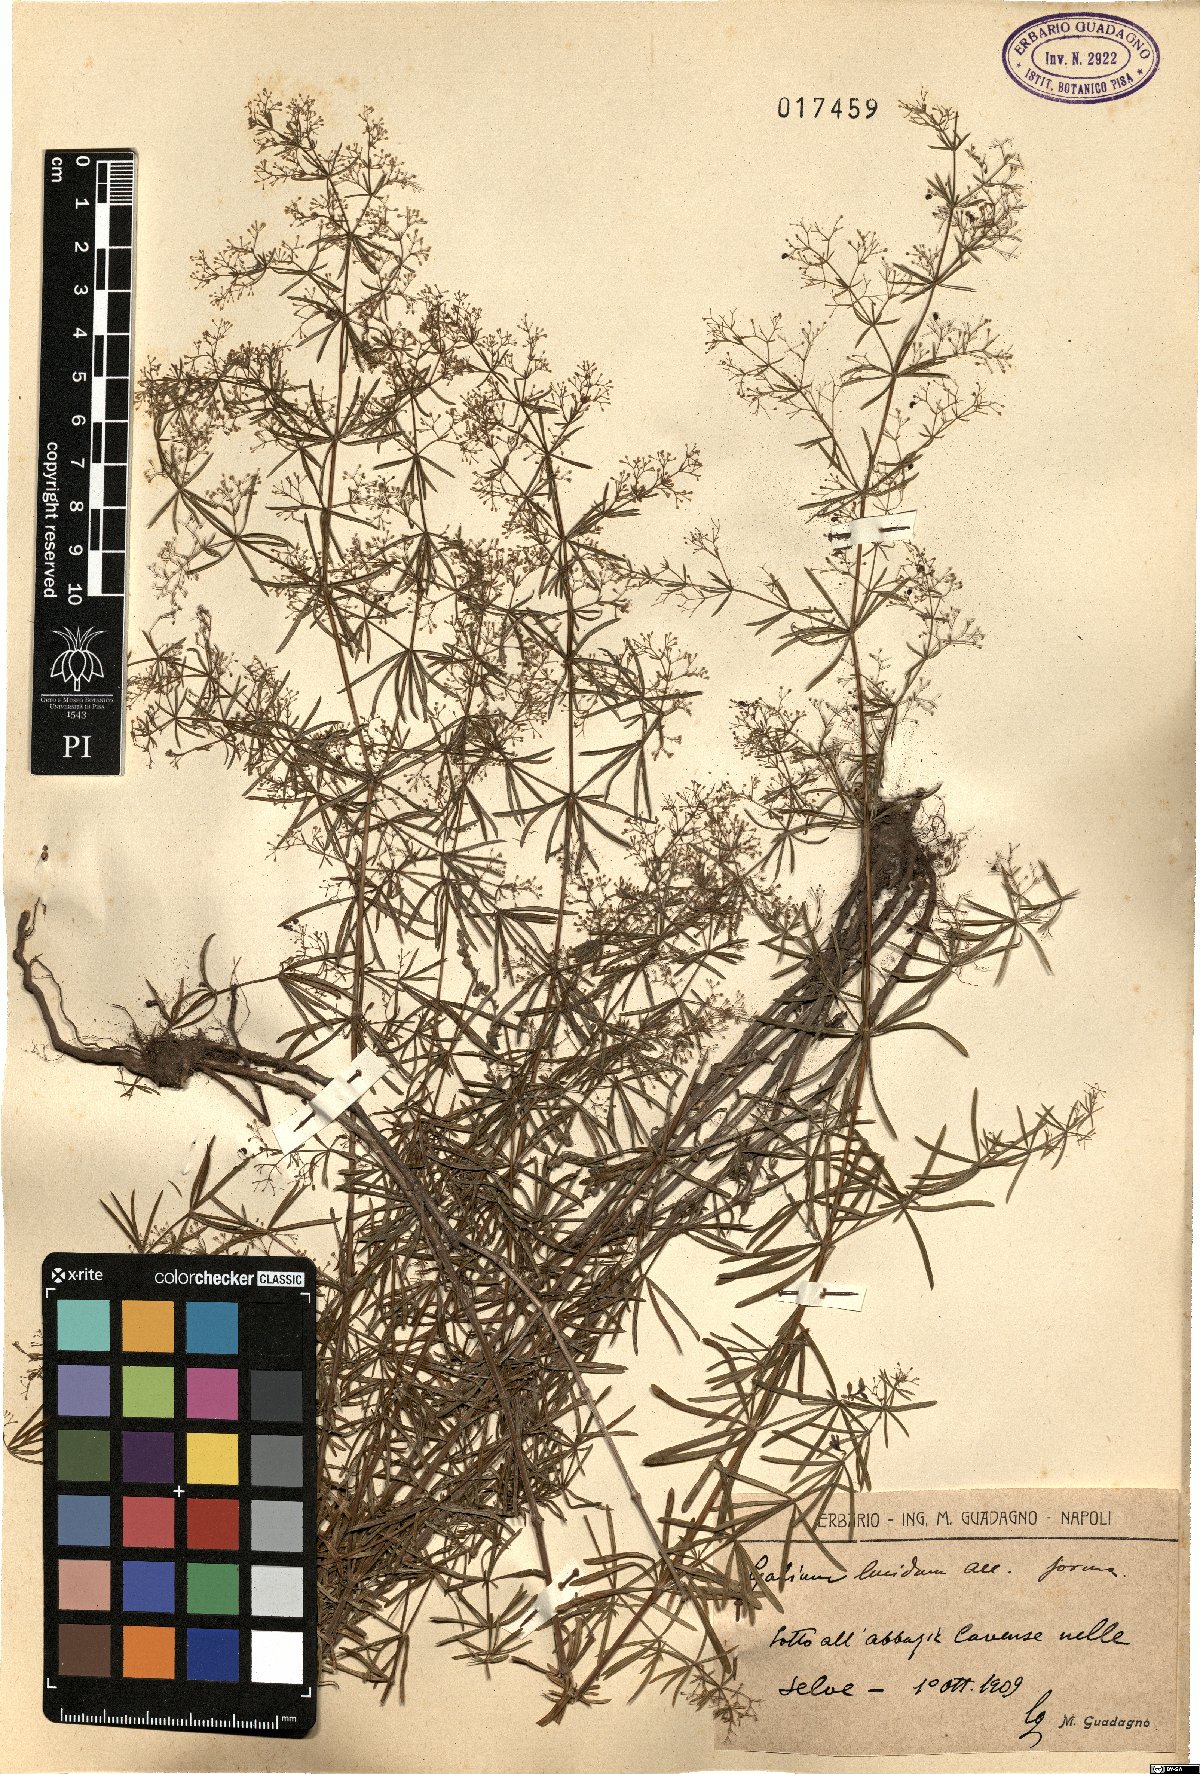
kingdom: Plantae
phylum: Tracheophyta
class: Magnoliopsida
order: Gentianales
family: Rubiaceae
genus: Galium
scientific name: Galium lucidum
